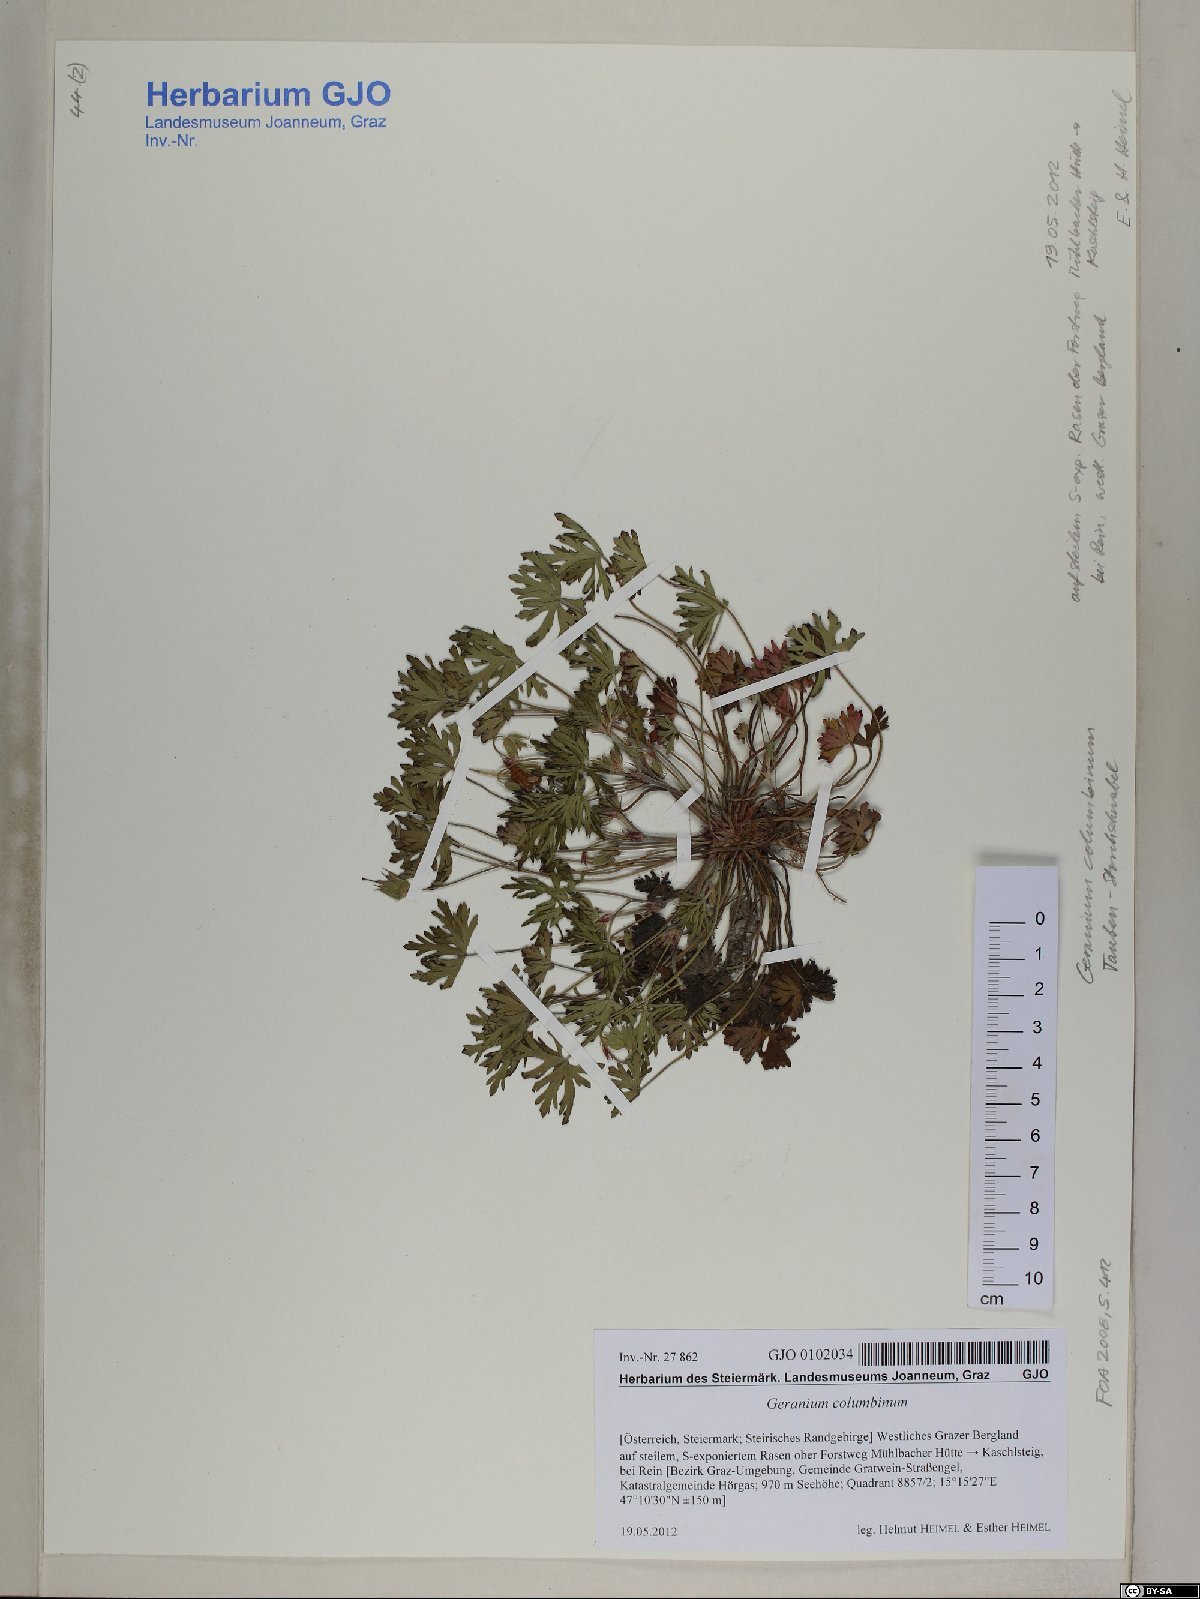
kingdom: Plantae
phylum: Tracheophyta
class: Magnoliopsida
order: Geraniales
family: Geraniaceae
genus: Geranium
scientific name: Geranium columbinum
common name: Long-stalked crane's-bill
